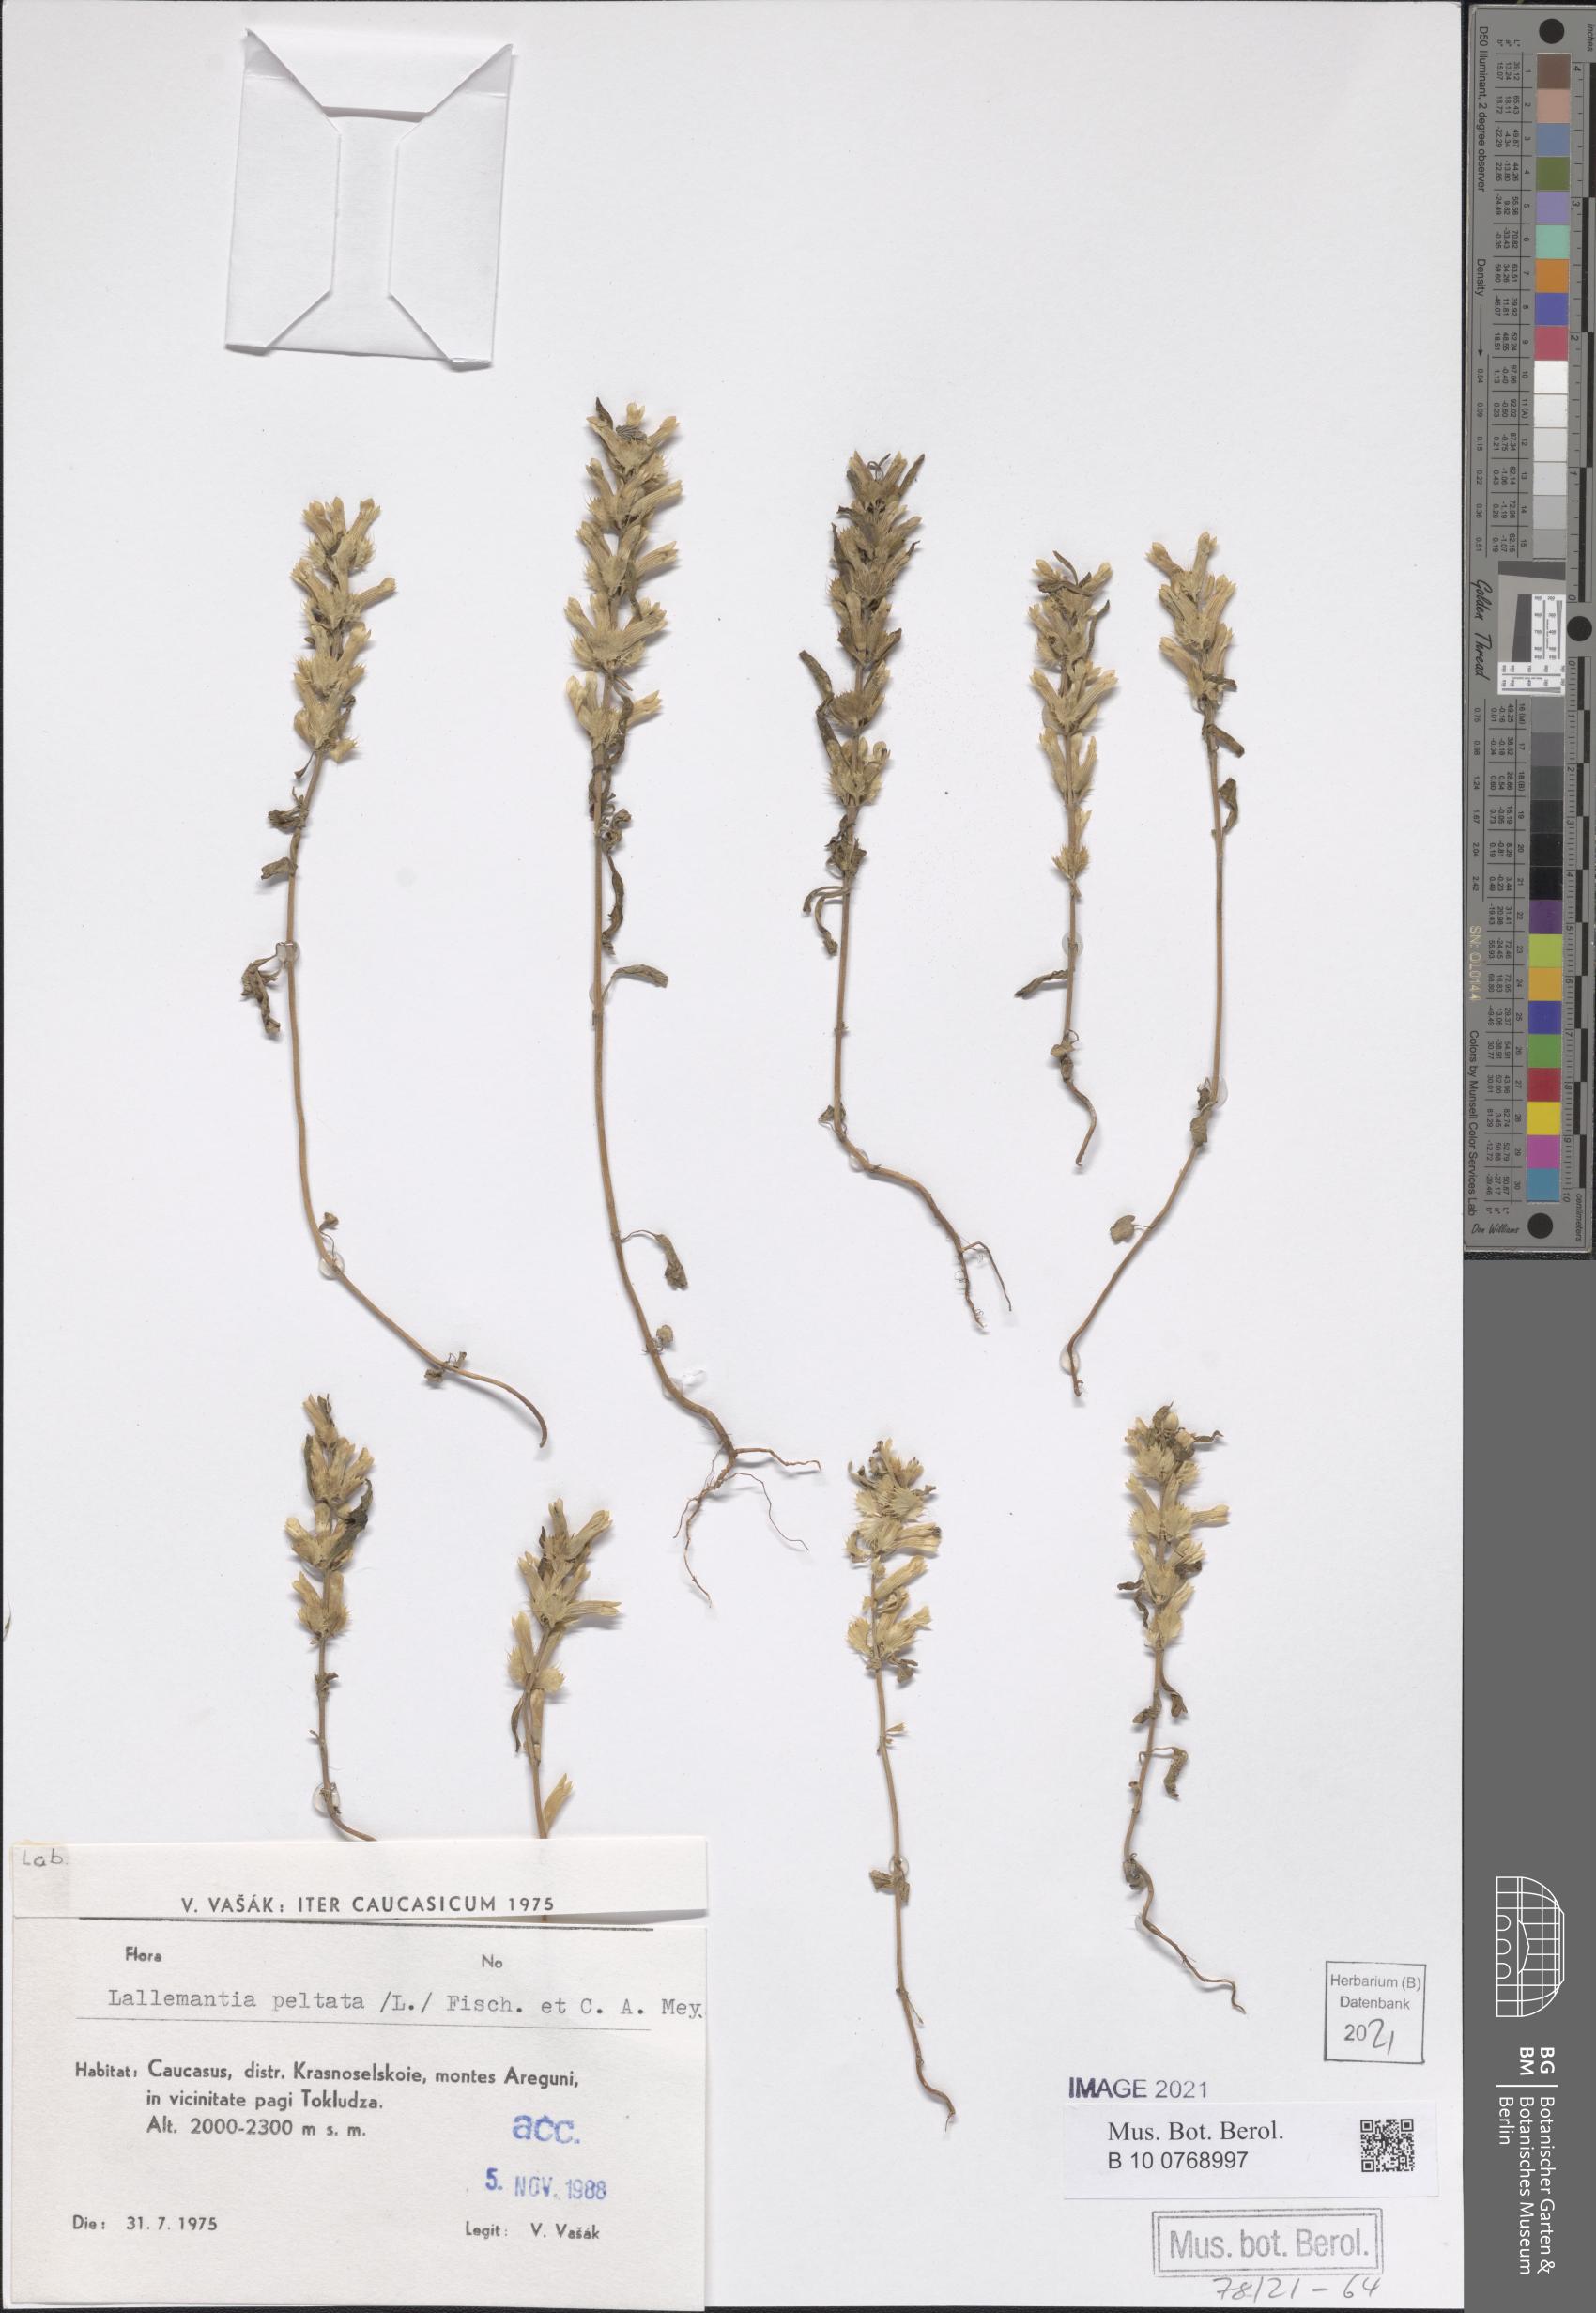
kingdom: Plantae
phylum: Tracheophyta
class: Magnoliopsida
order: Lamiales
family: Lamiaceae
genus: Lallemantia
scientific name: Lallemantia peltata
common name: Lion's heart
